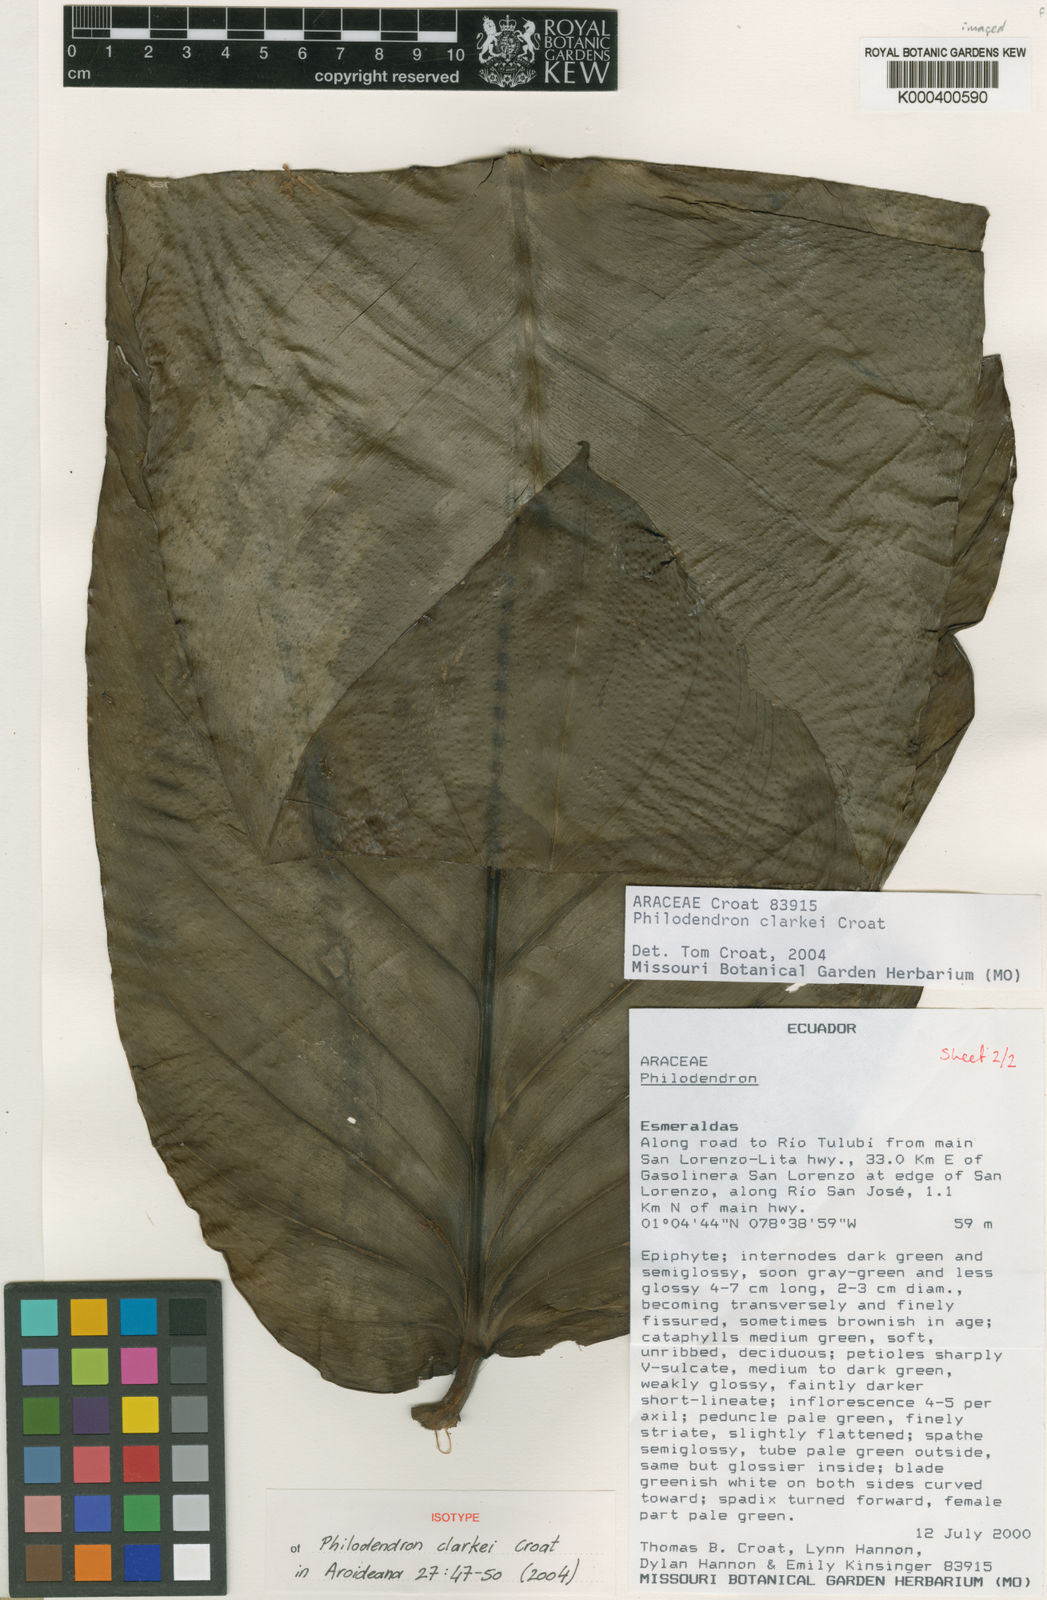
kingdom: Plantae
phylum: Tracheophyta
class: Liliopsida
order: Alismatales
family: Araceae
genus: Philodendron
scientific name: Philodendron clarkei
